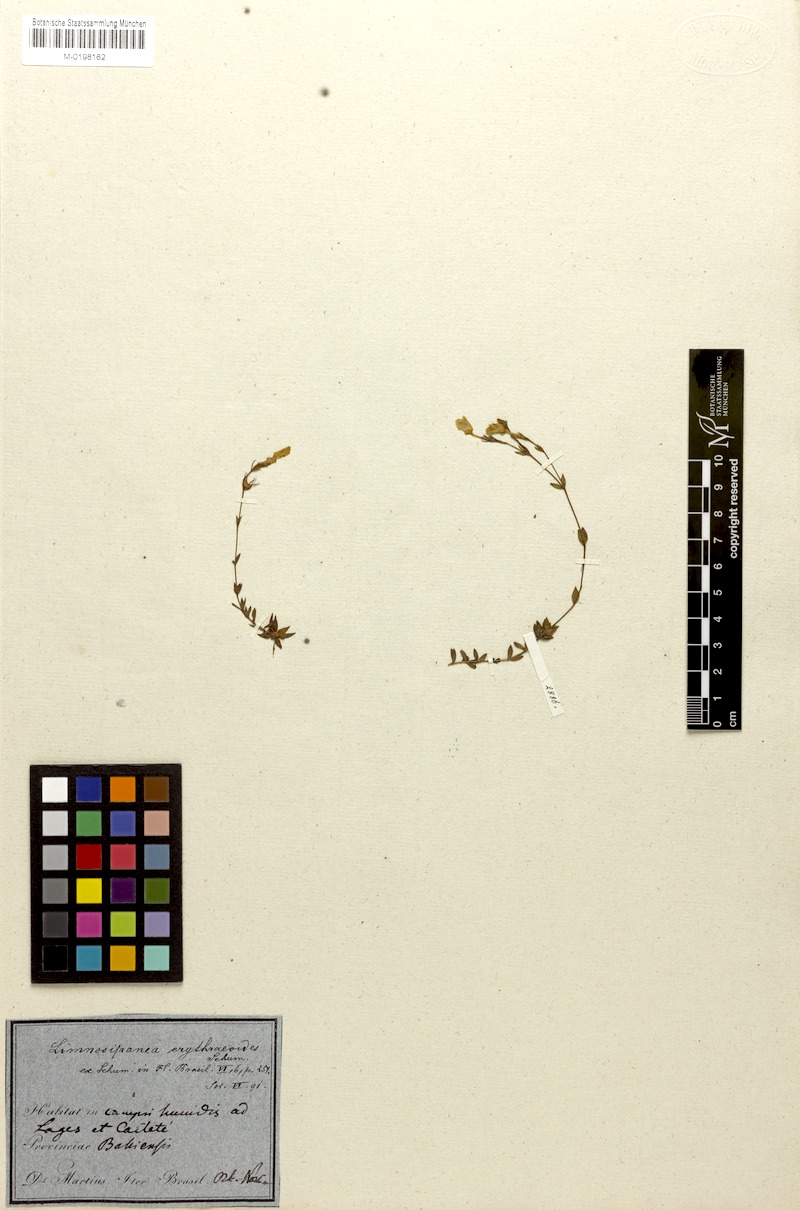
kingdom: Plantae
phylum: Tracheophyta
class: Magnoliopsida
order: Gentianales
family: Rubiaceae
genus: Limnosipanea
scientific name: Limnosipanea erythraeoides
